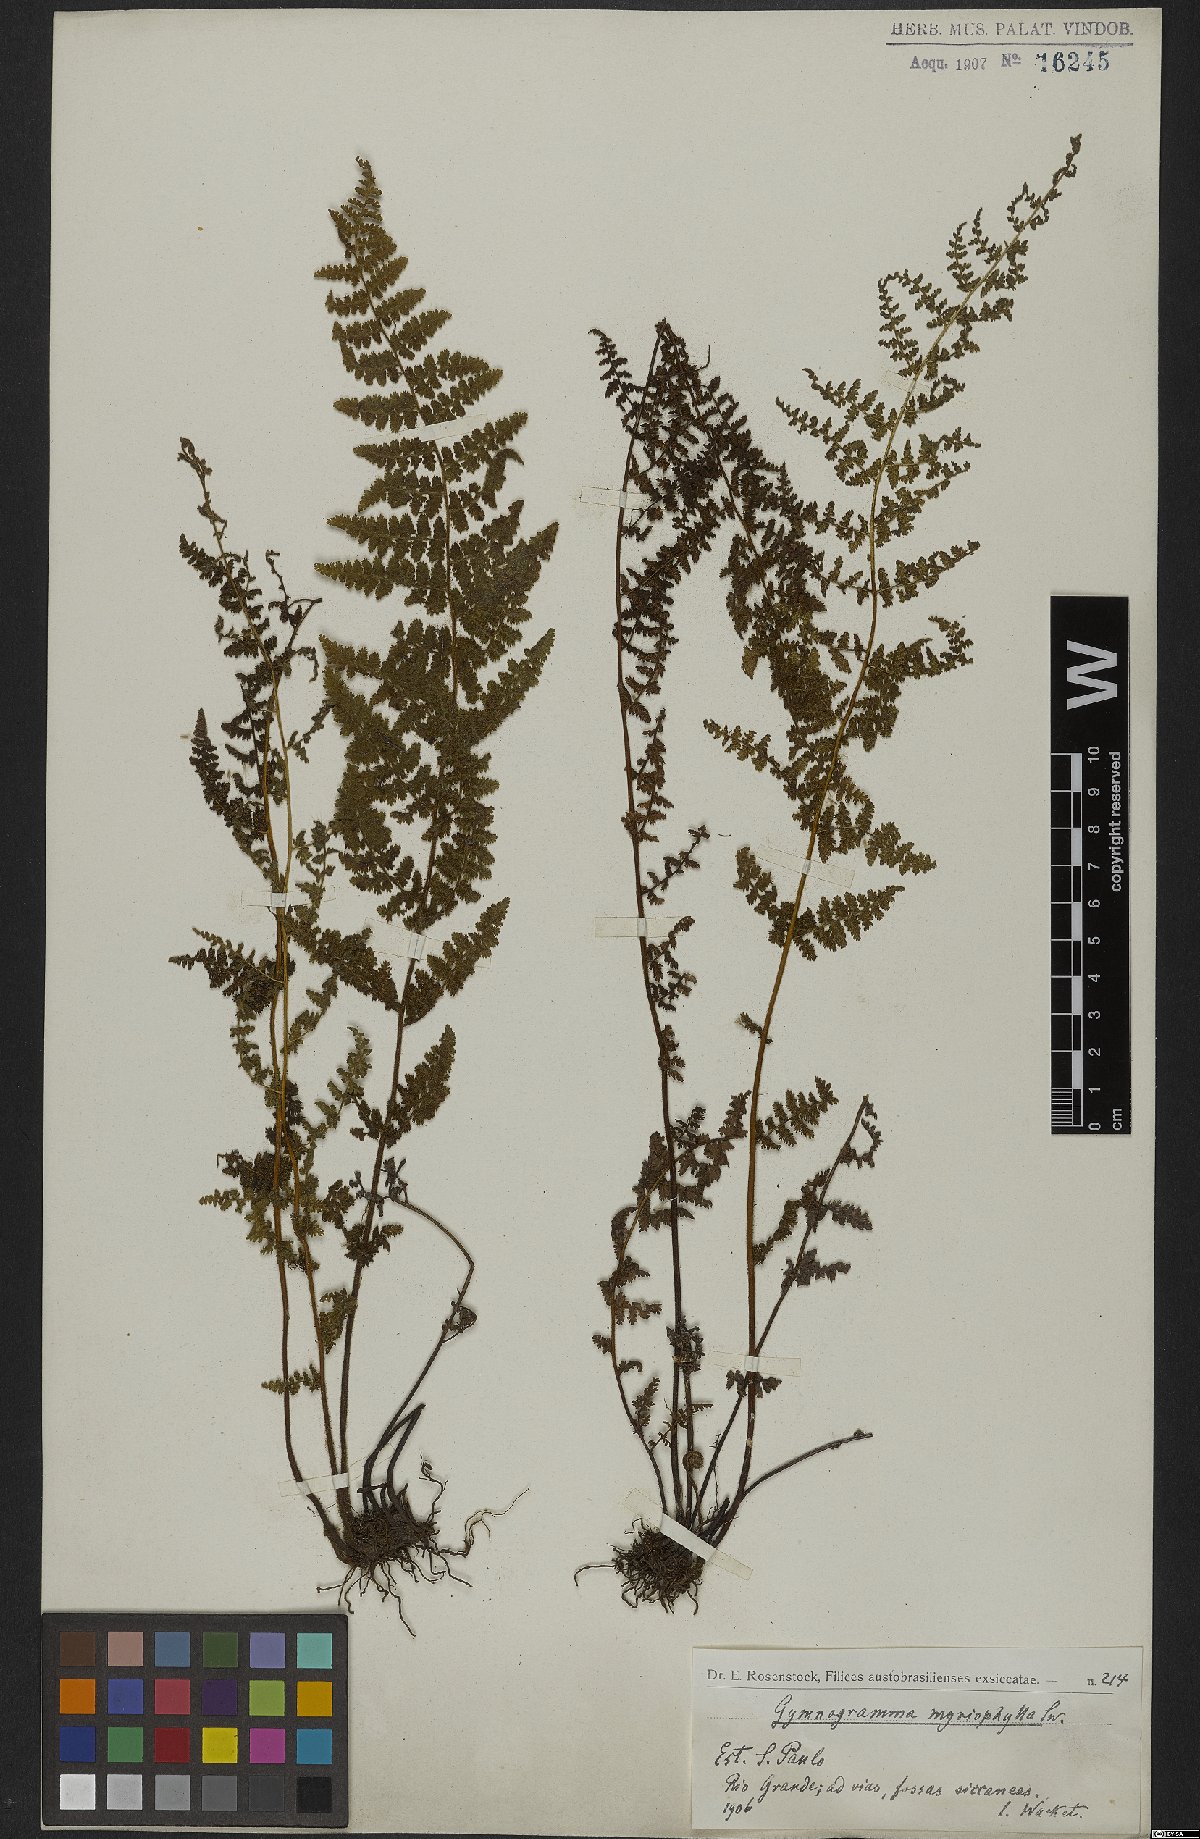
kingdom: Plantae
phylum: Tracheophyta
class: Polypodiopsida
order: Polypodiales
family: Pteridaceae
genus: Tryonia
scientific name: Tryonia myriophylla
